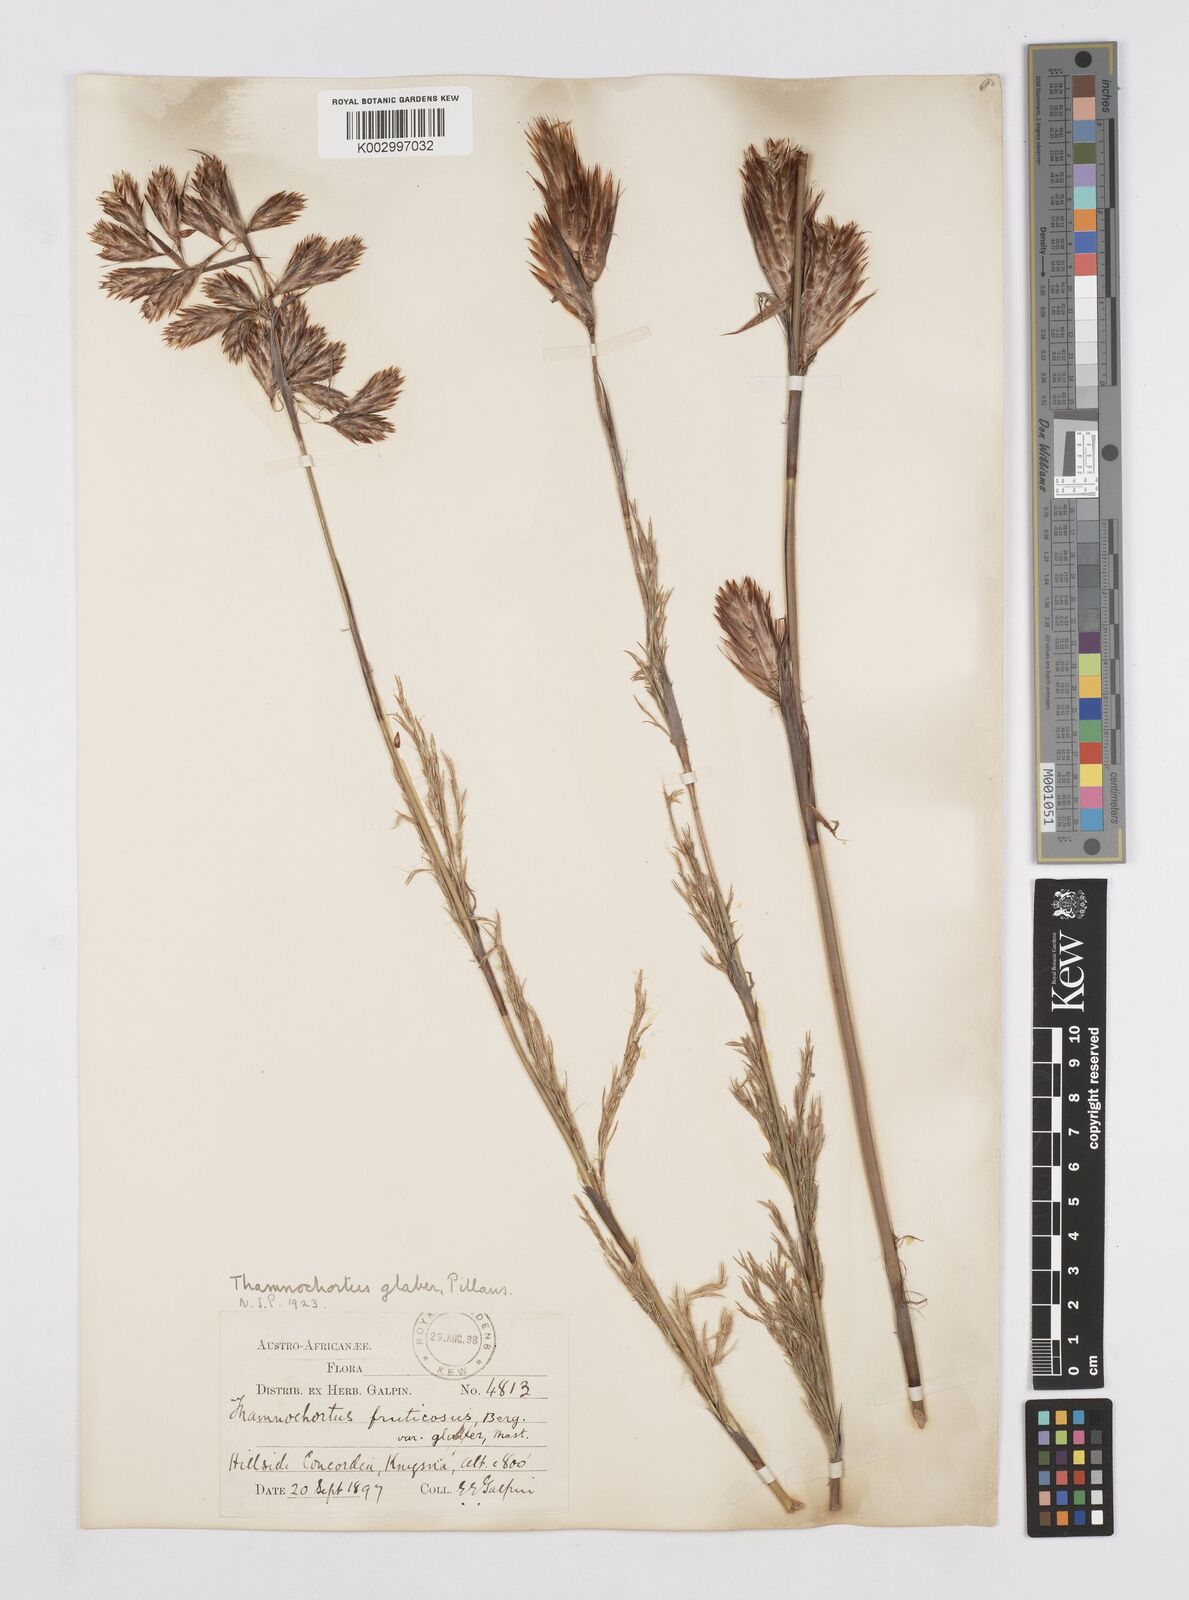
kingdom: Plantae
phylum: Tracheophyta
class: Liliopsida
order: Poales
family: Restionaceae
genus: Thamnochortus
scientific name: Thamnochortus glaber
